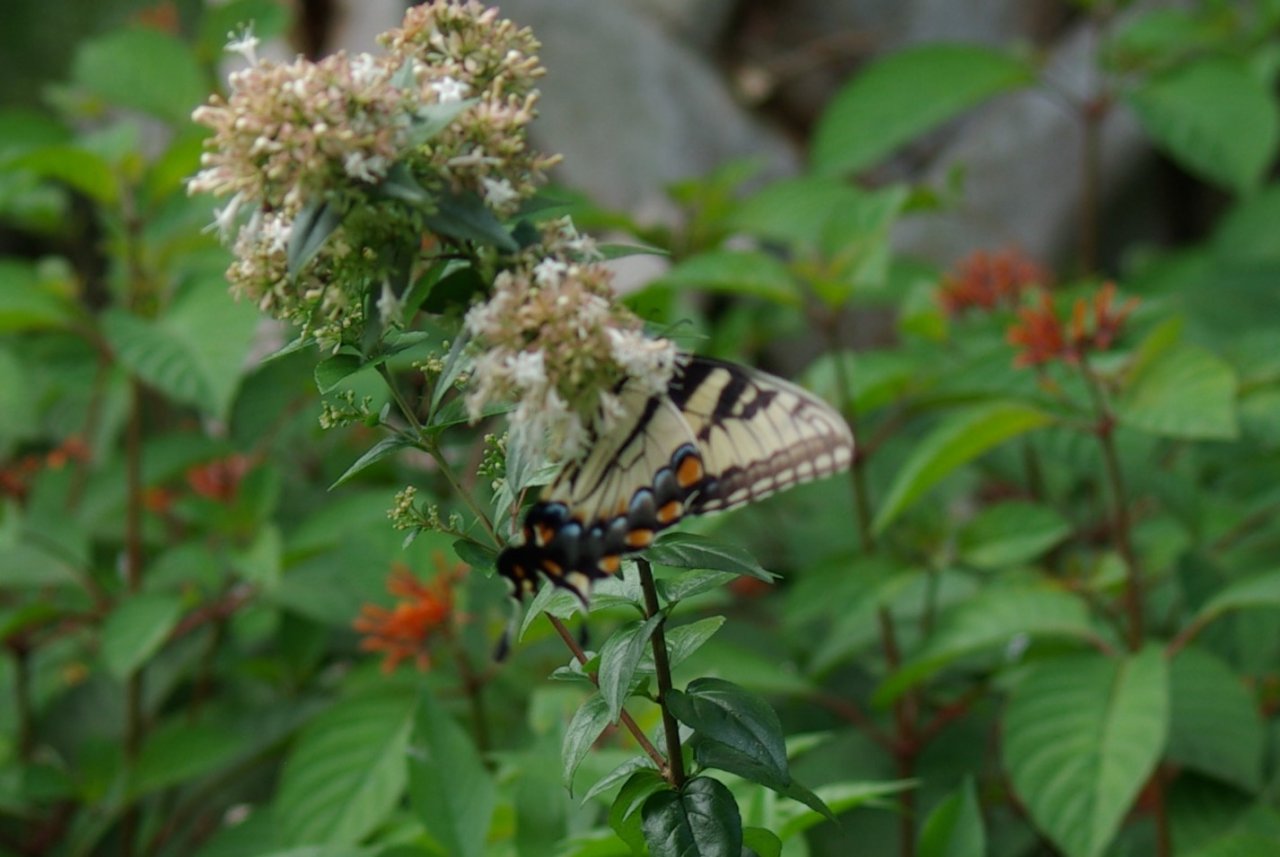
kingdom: Animalia
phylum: Arthropoda
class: Insecta
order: Lepidoptera
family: Papilionidae
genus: Pterourus
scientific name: Pterourus glaucus
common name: Eastern Tiger Swallowtail
